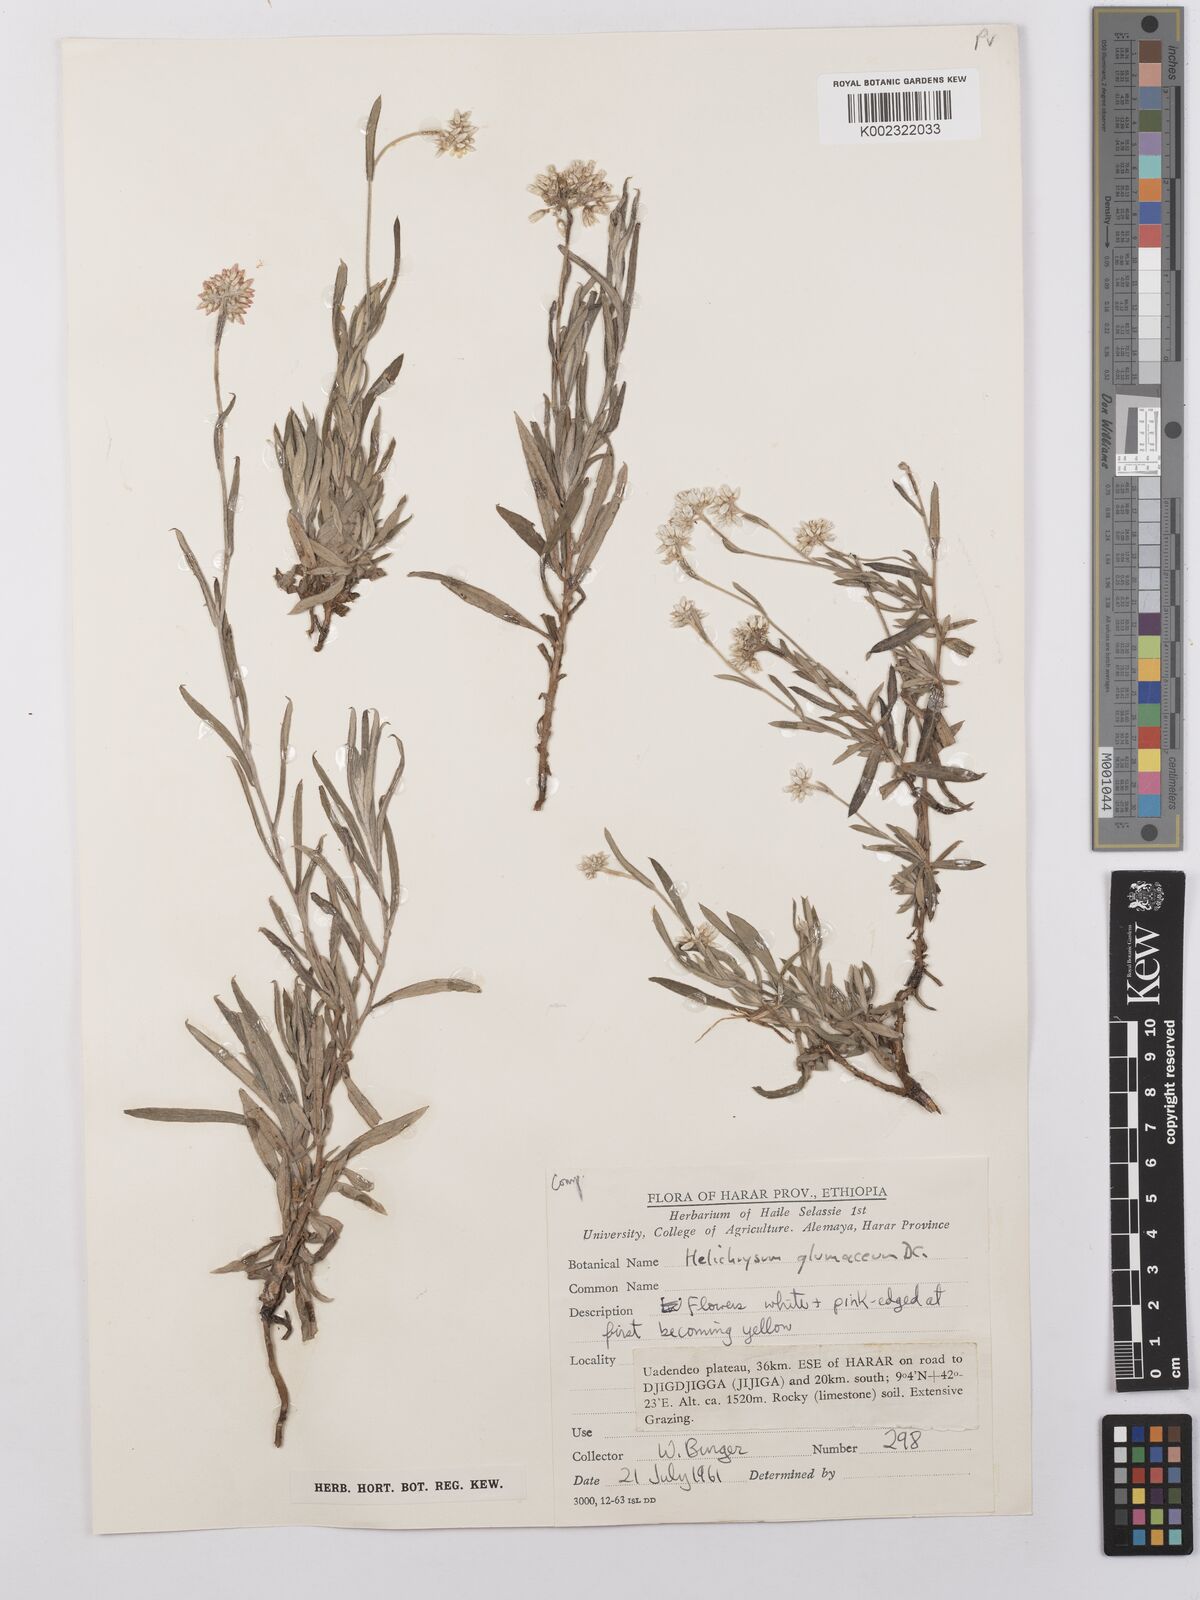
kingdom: Plantae
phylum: Tracheophyta
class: Magnoliopsida
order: Asterales
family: Asteraceae
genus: Helichrysum
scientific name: Helichrysum glumaceum
